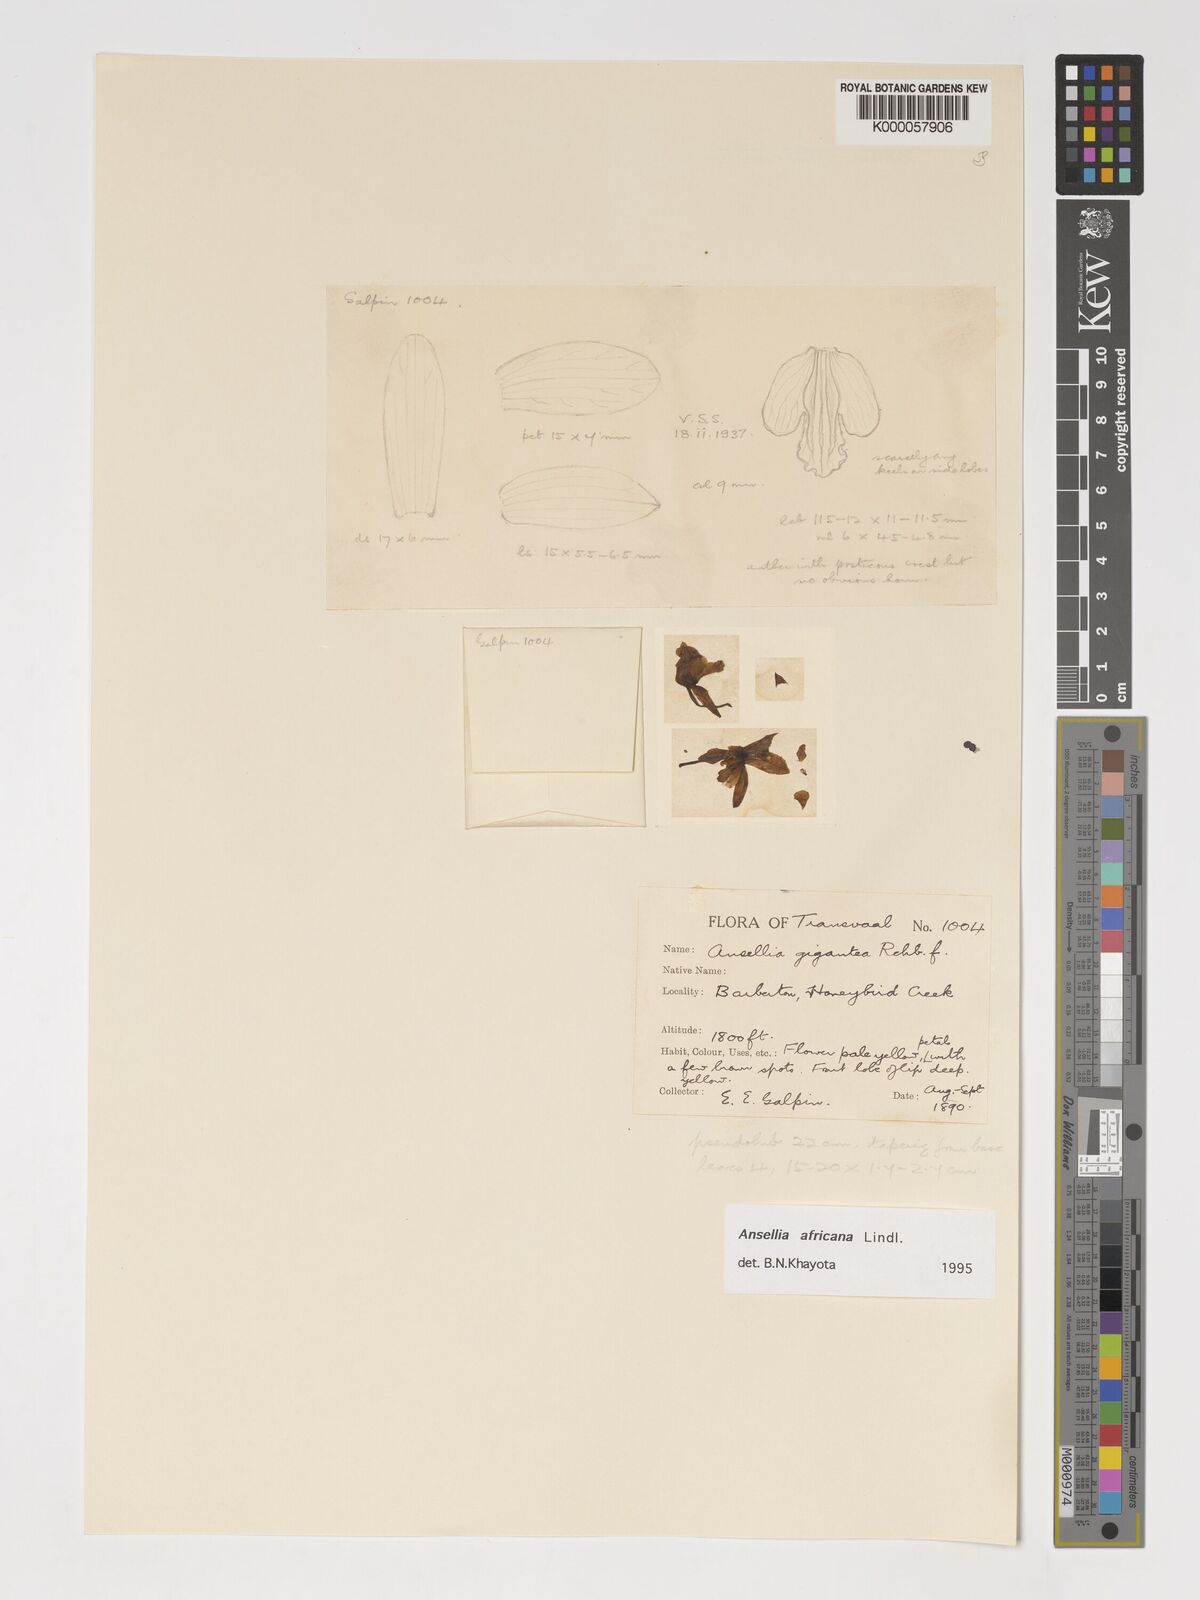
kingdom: Plantae
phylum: Tracheophyta
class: Liliopsida
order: Asparagales
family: Orchidaceae
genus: Ansellia
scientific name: Ansellia africana
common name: African ansellia
